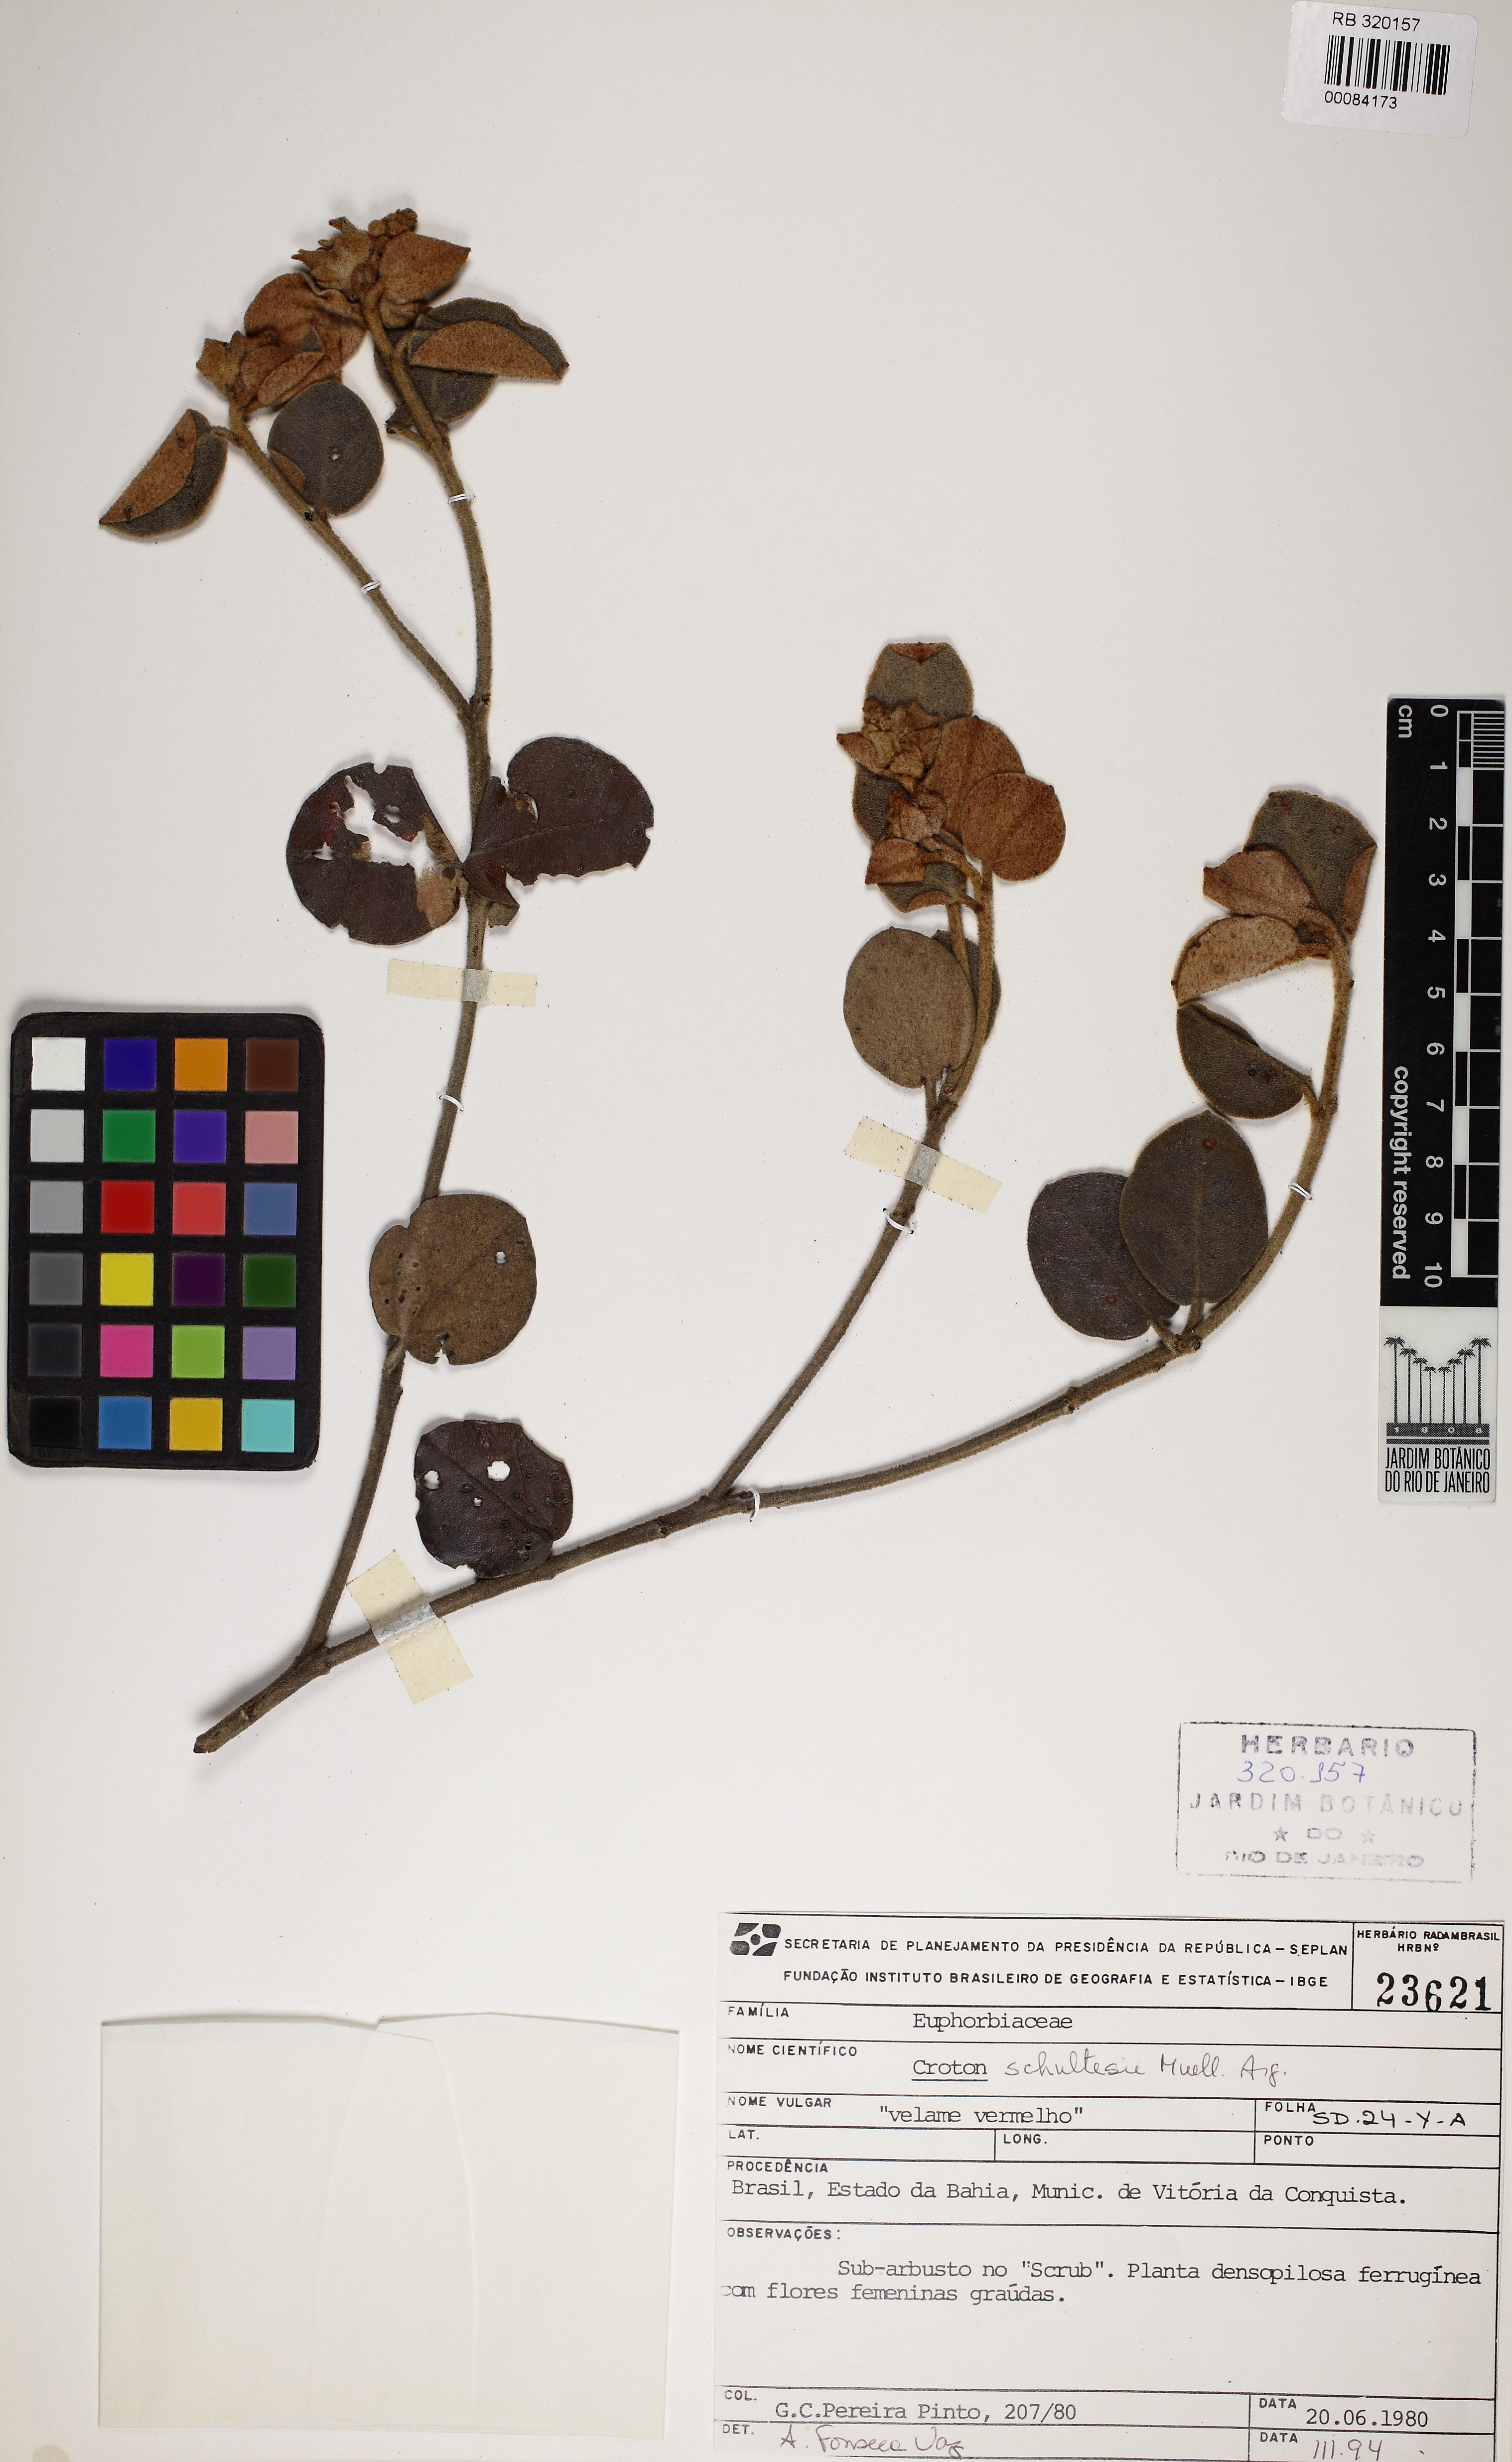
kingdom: Plantae
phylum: Tracheophyta
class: Magnoliopsida
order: Malpighiales
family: Euphorbiaceae
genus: Croton
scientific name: Croton schultesii
